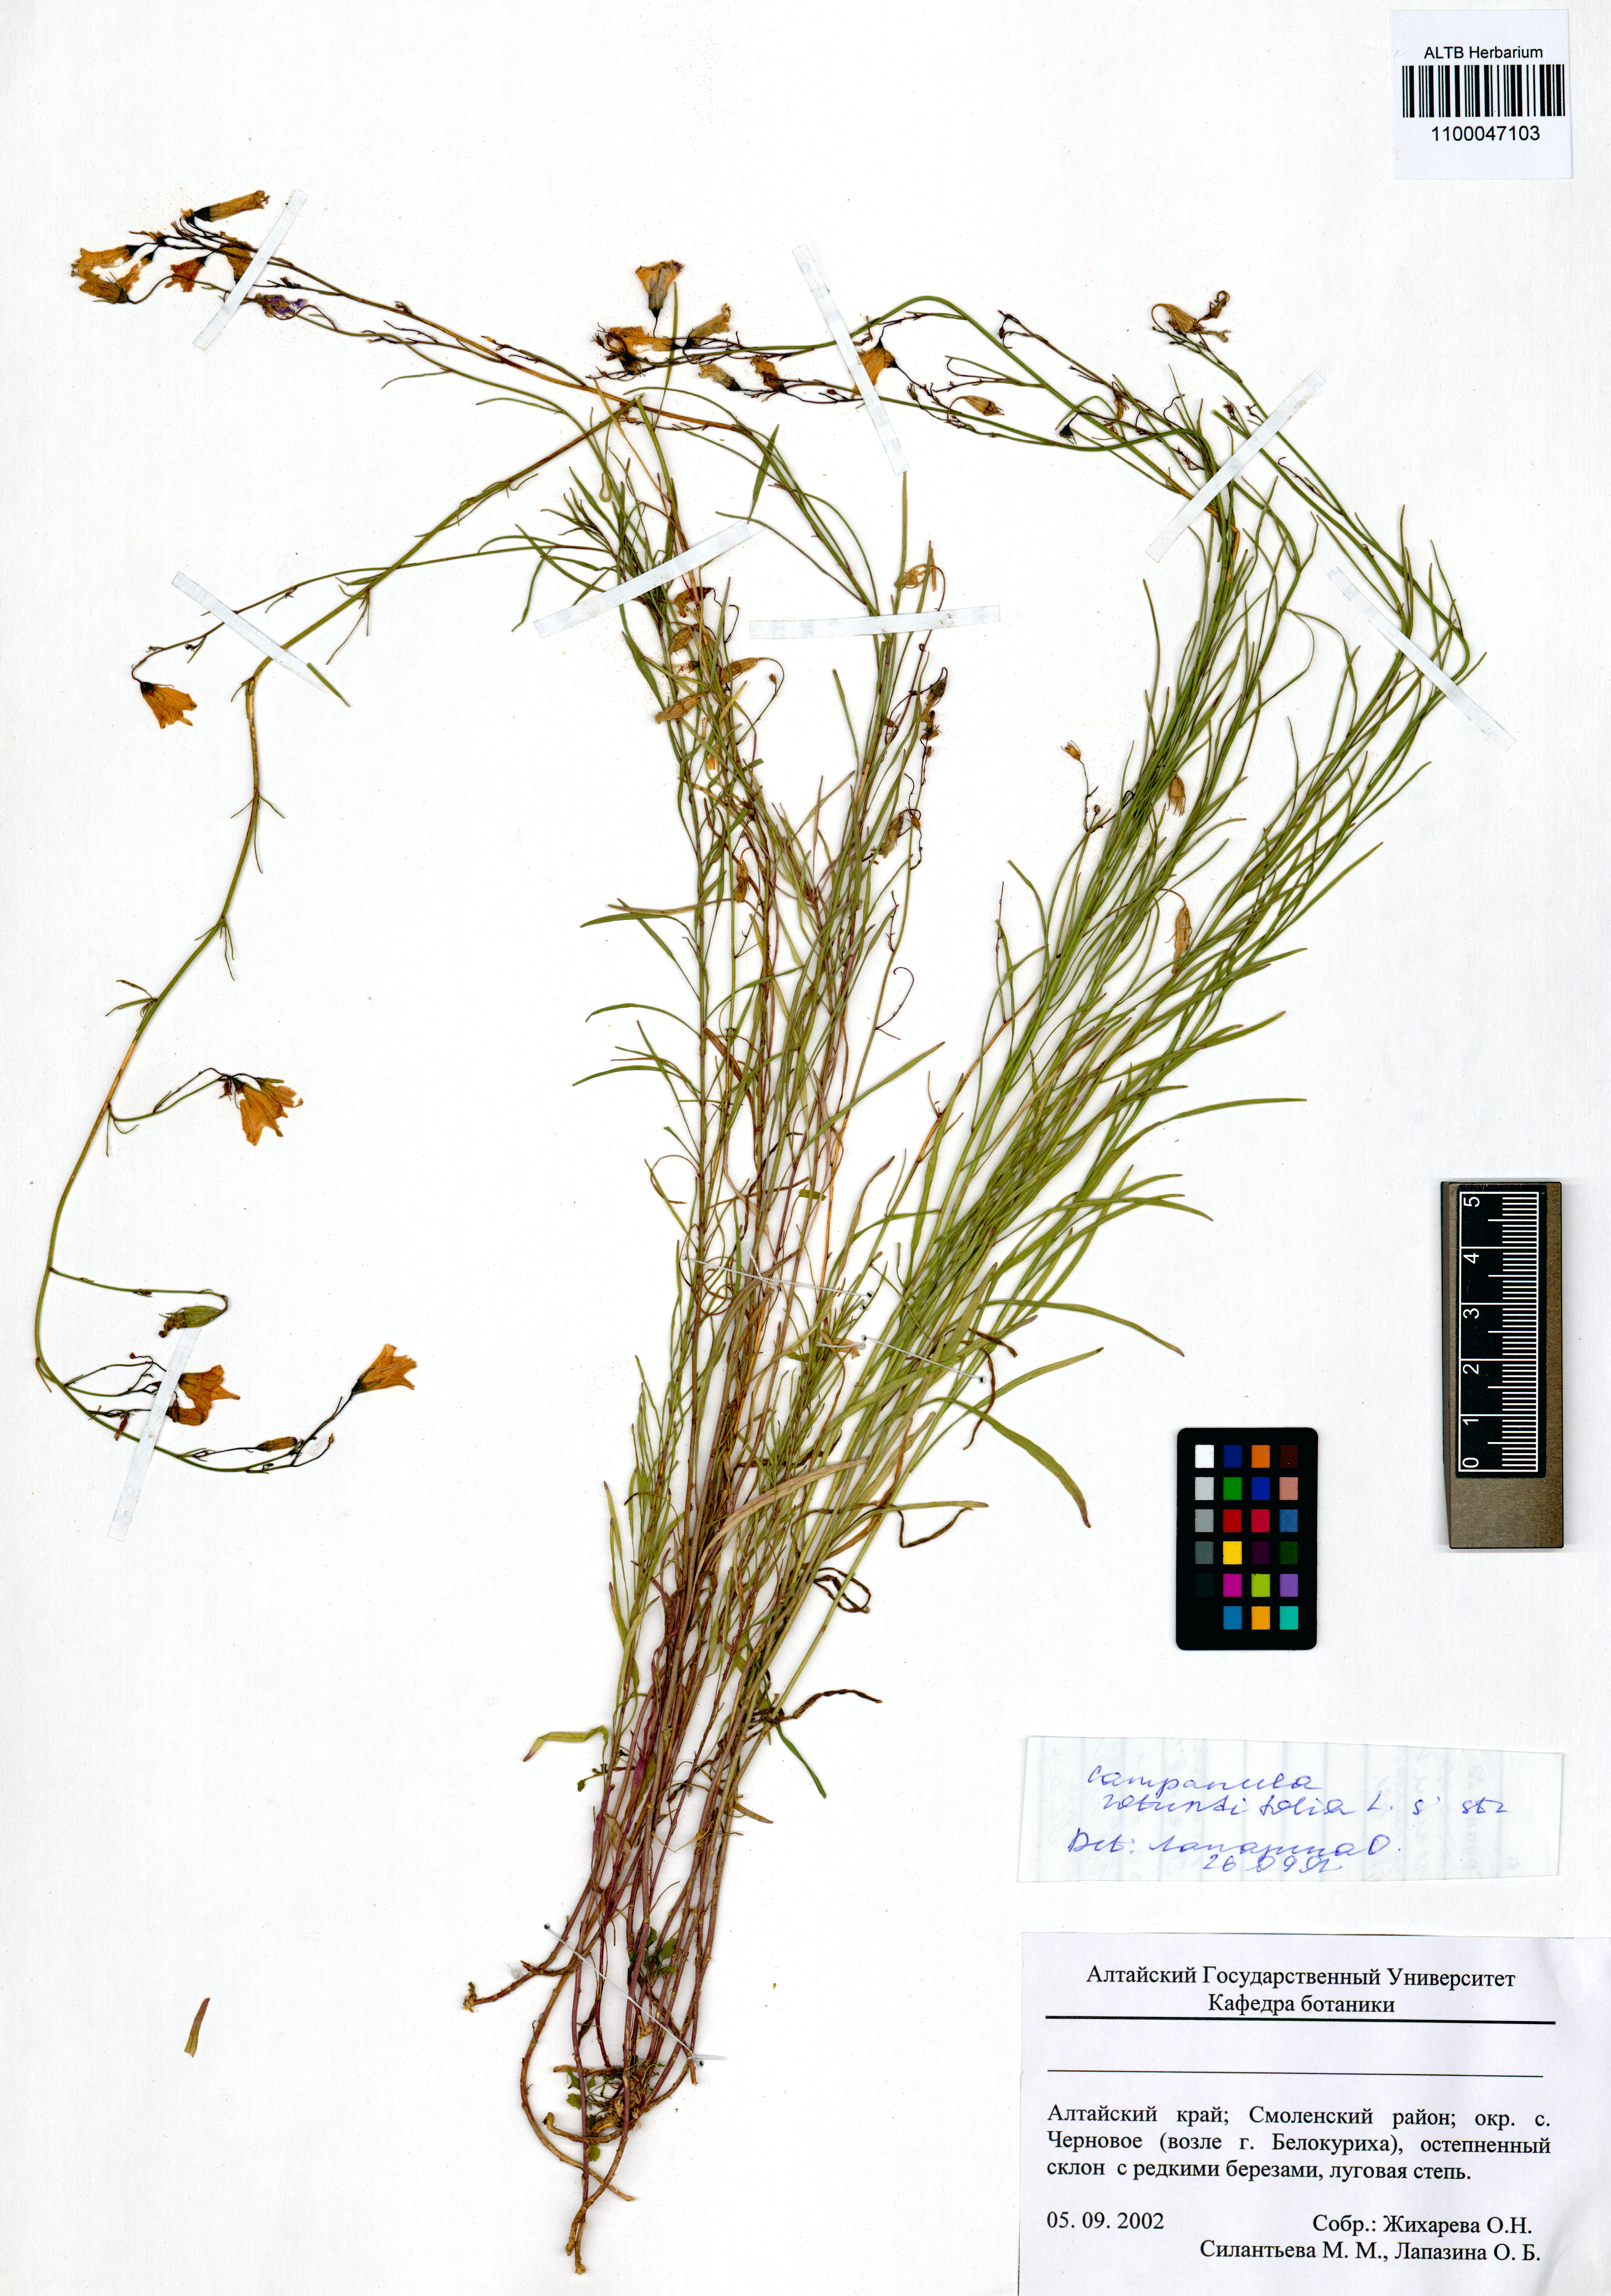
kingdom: Plantae
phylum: Tracheophyta
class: Magnoliopsida
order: Asterales
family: Campanulaceae
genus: Campanula
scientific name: Campanula rotundifolia
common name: Harebell
